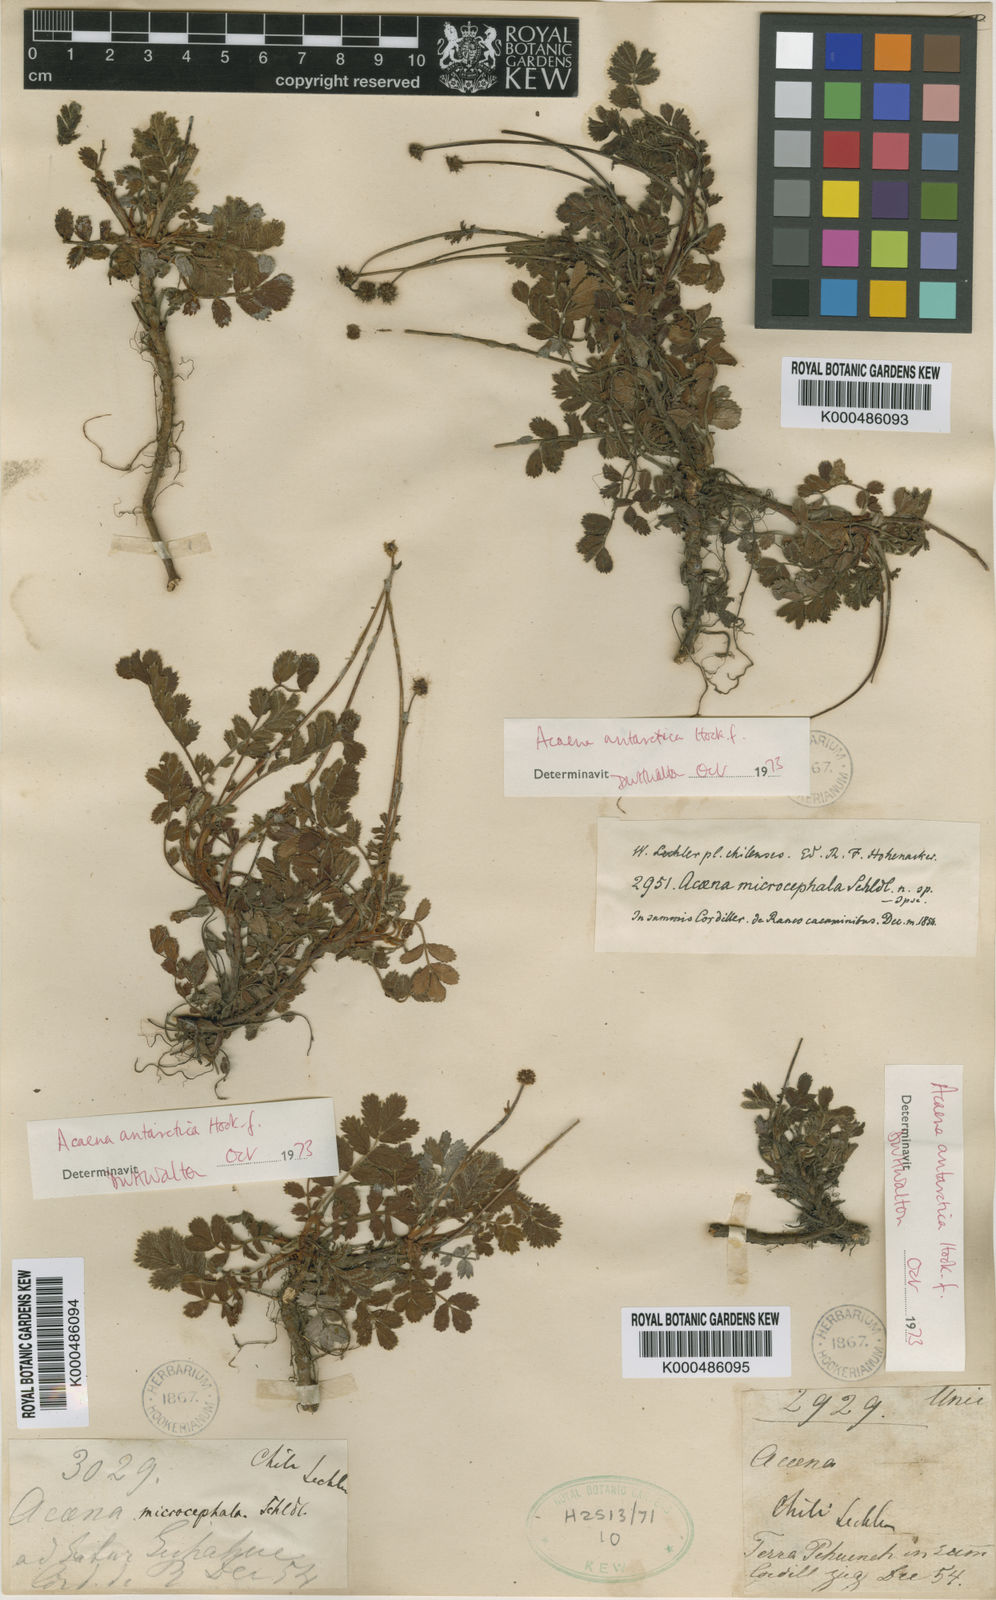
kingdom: Plantae
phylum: Tracheophyta
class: Magnoliopsida
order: Rosales
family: Rosaceae
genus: Acaena
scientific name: Acaena ovalifolia
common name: Two-spined acaena
